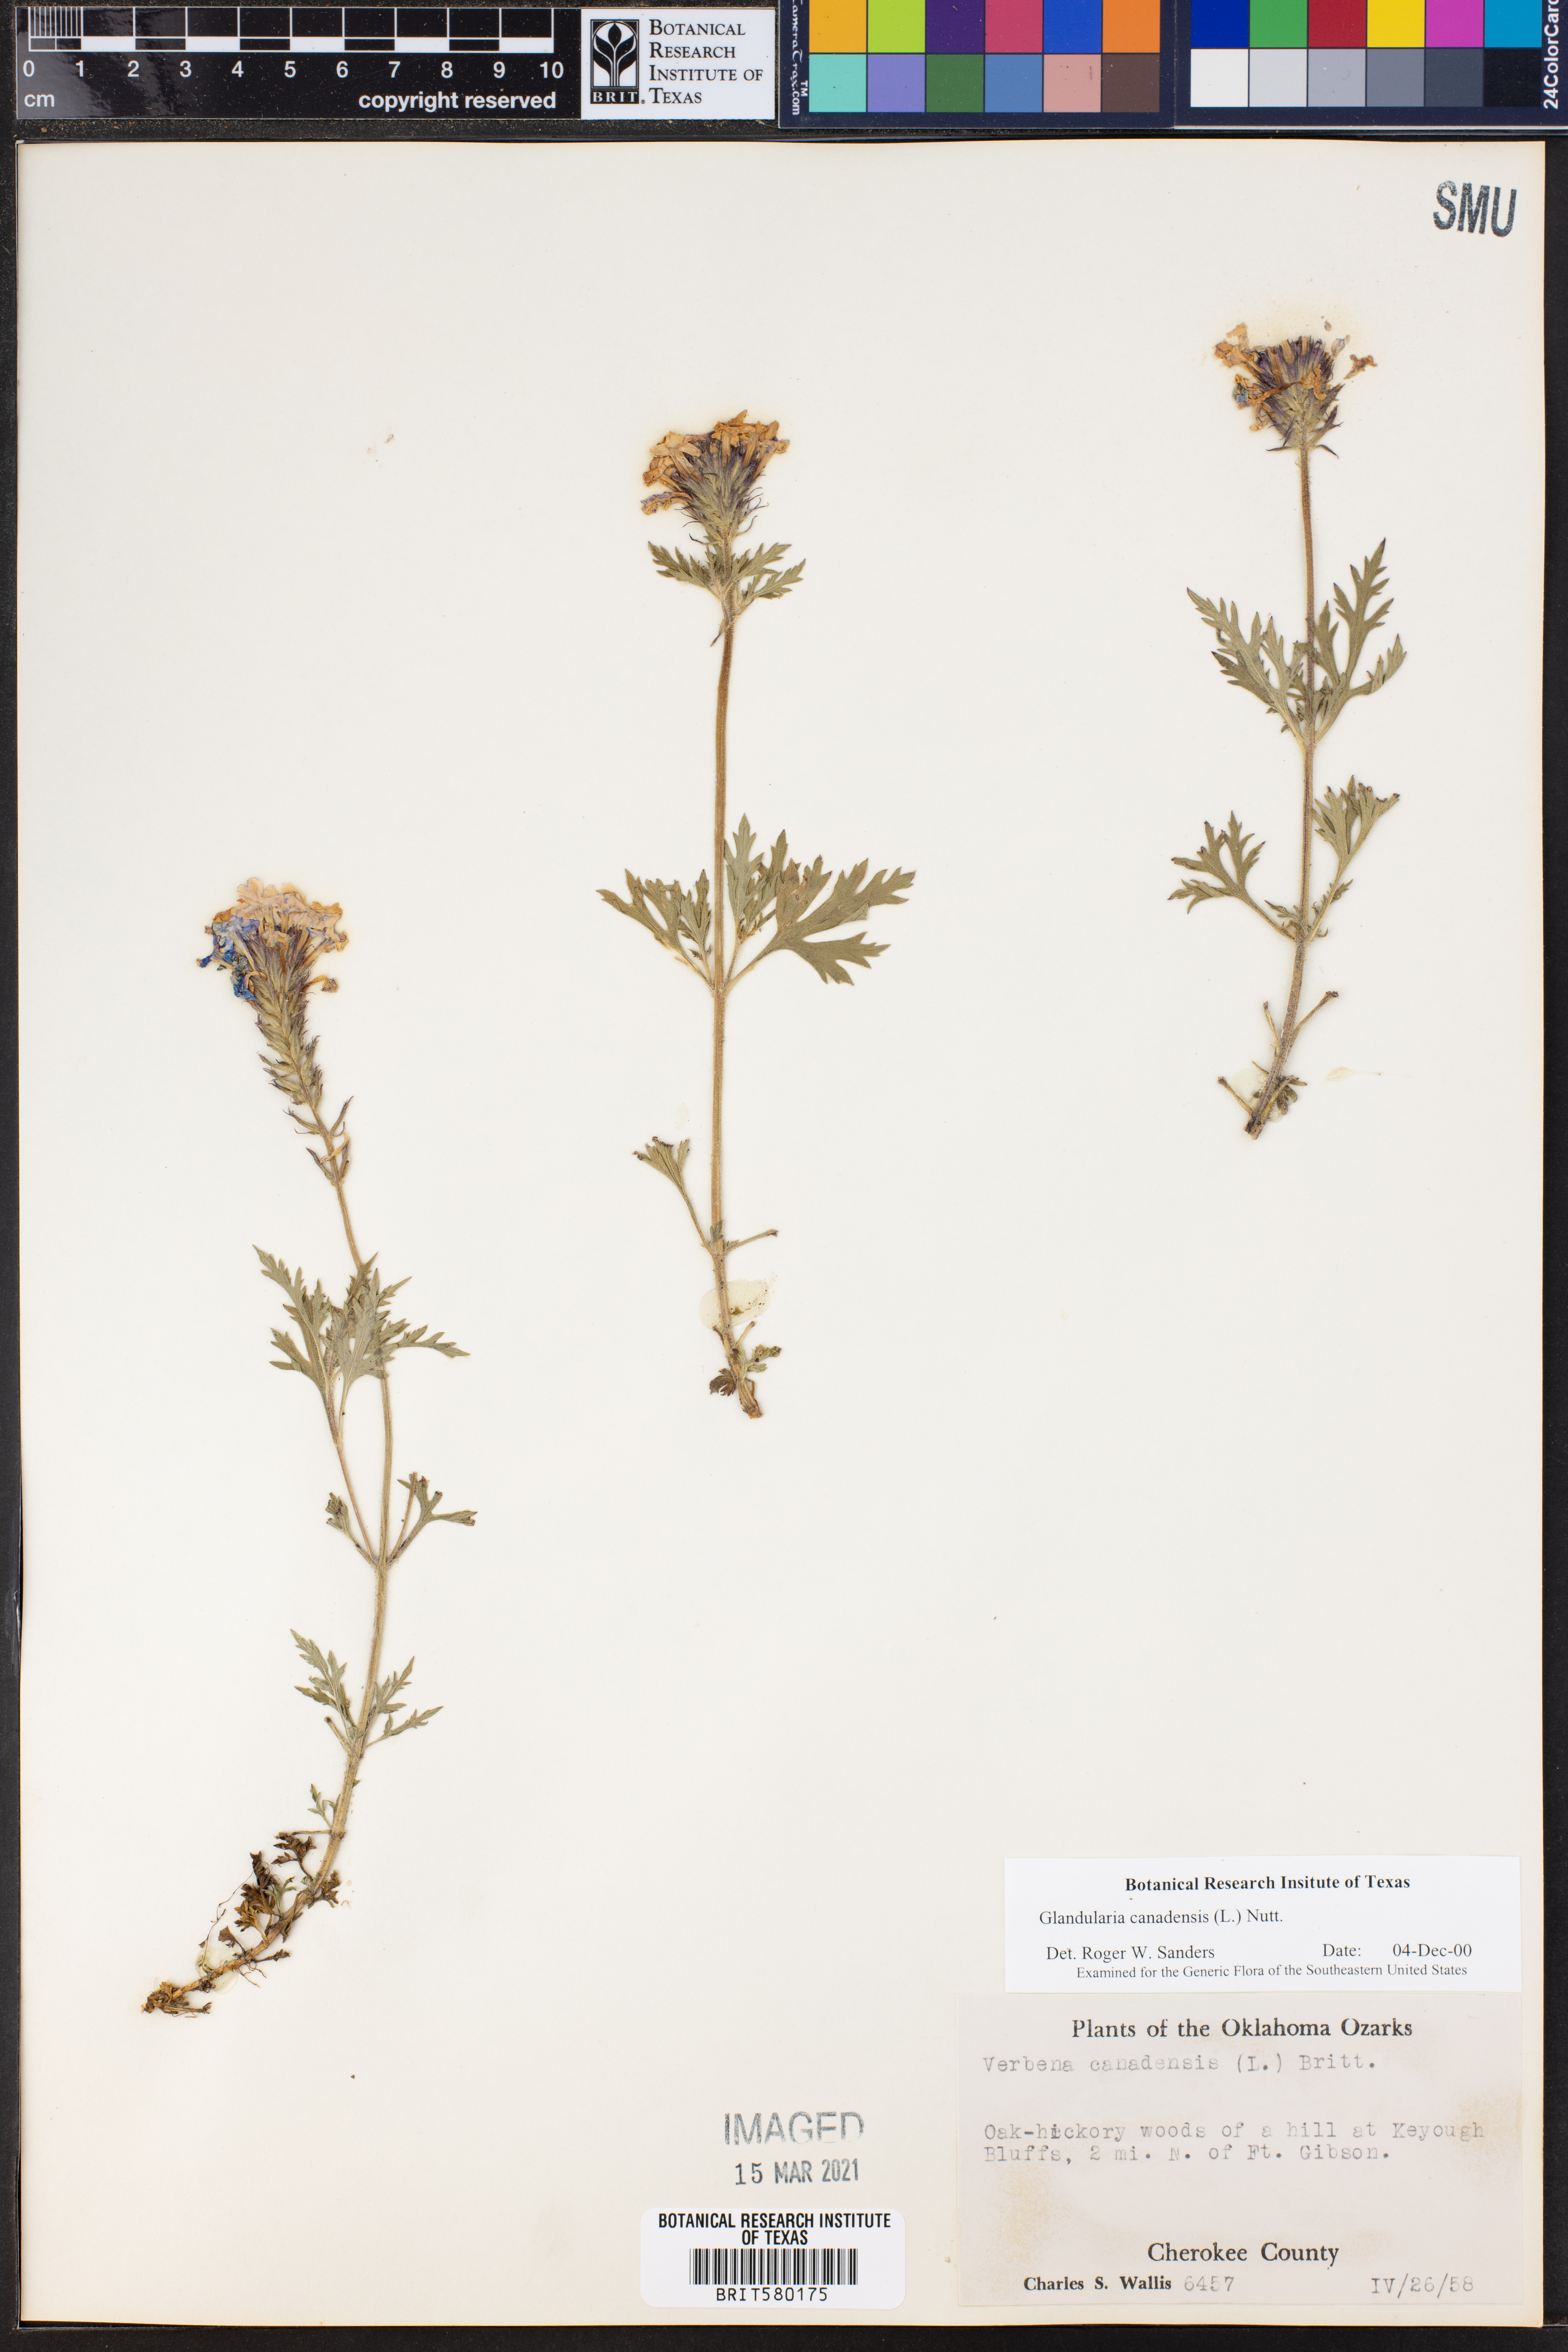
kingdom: Plantae
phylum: Tracheophyta
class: Magnoliopsida
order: Lamiales
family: Verbenaceae
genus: Verbena
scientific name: Verbena canadensis
